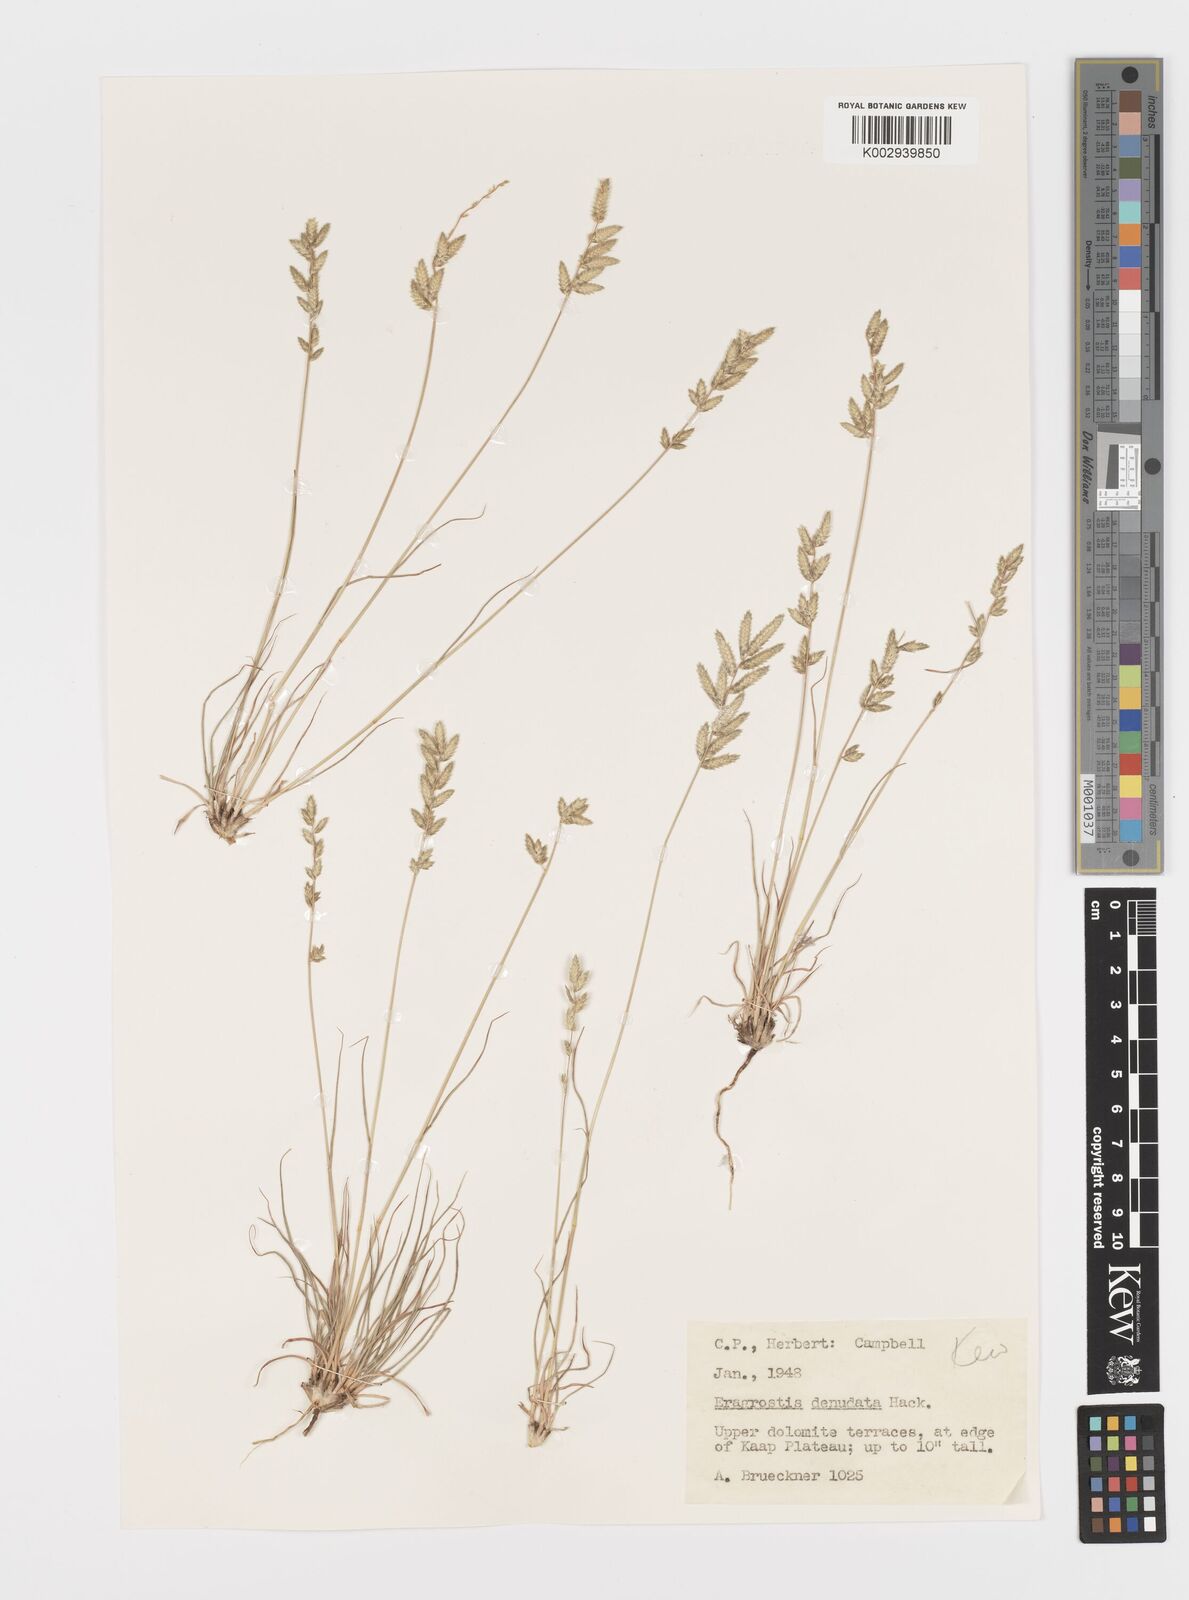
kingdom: Plantae
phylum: Tracheophyta
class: Liliopsida
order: Poales
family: Poaceae
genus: Eragrostis
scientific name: Eragrostis nindensis
